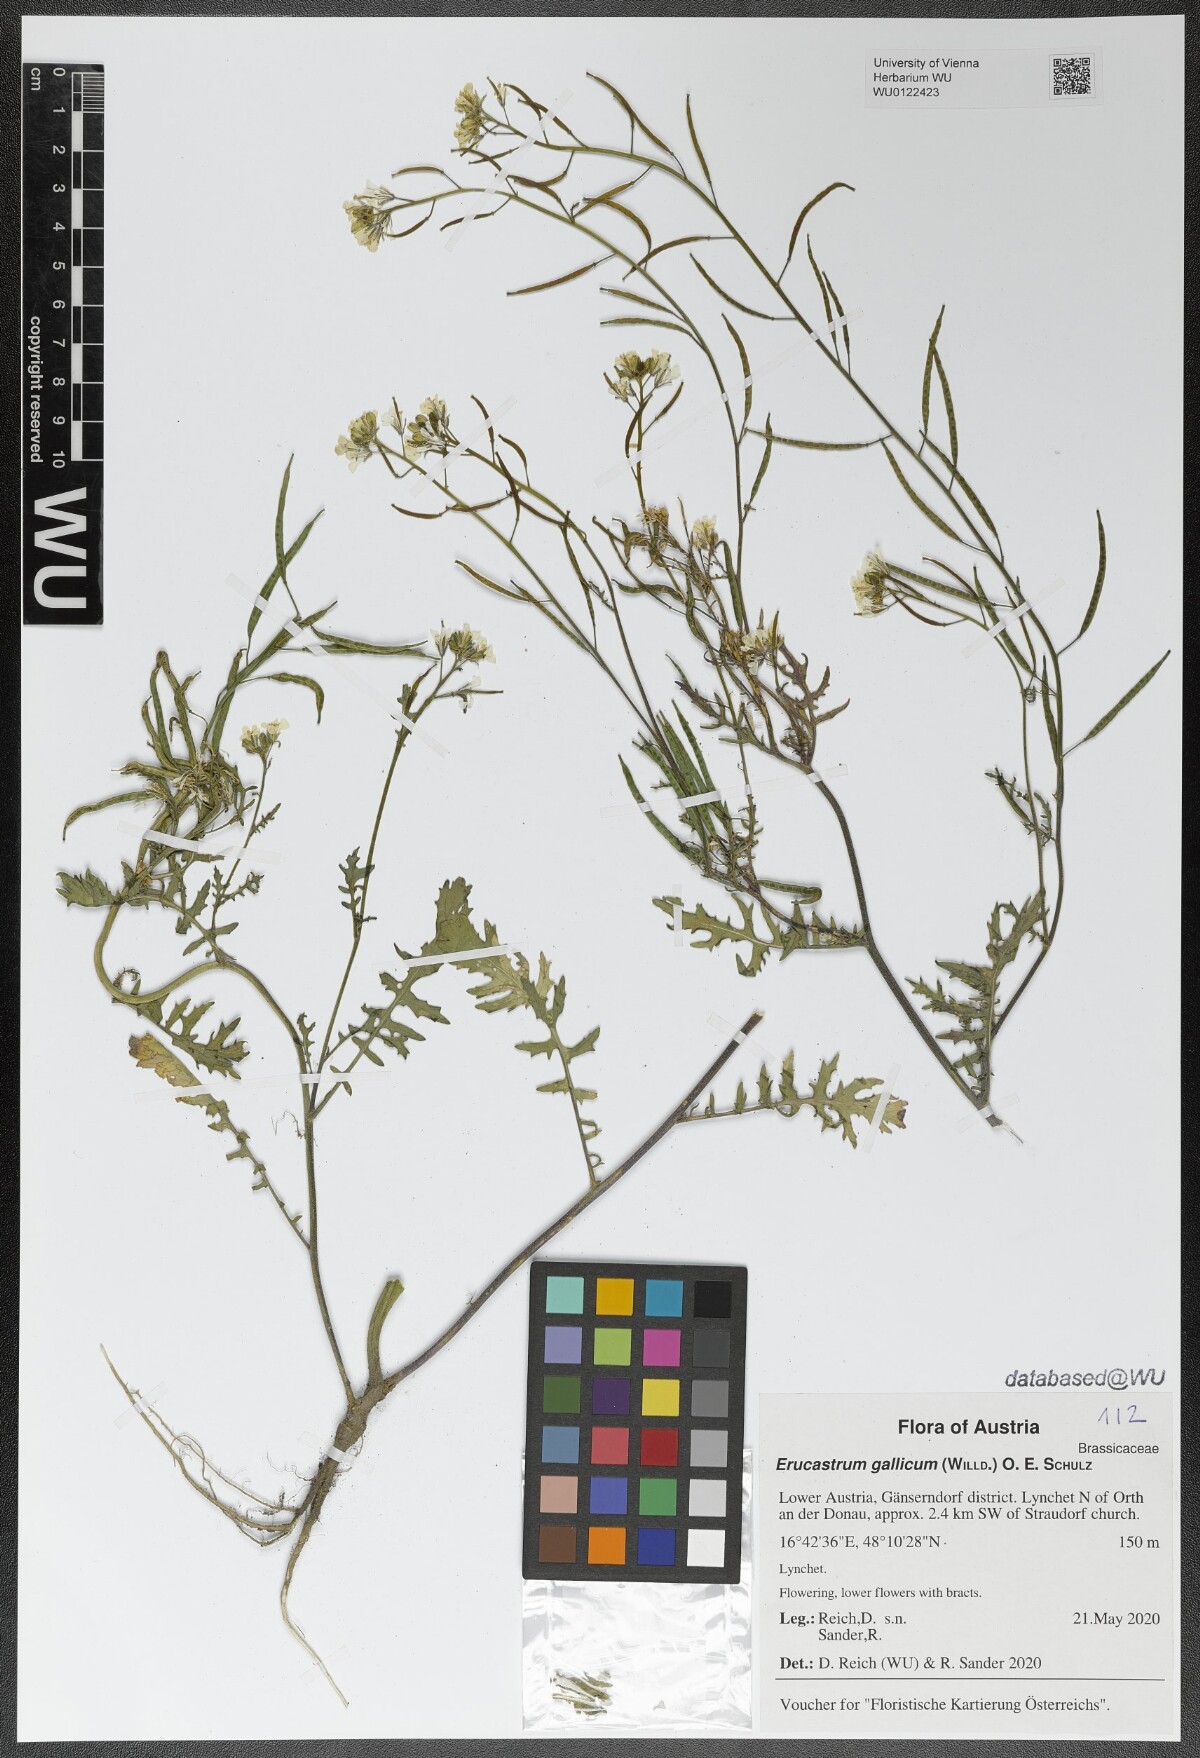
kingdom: Plantae
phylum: Tracheophyta
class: Magnoliopsida
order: Brassicales
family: Brassicaceae
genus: Erucastrum
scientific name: Erucastrum gallicum
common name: Hairy rocket
